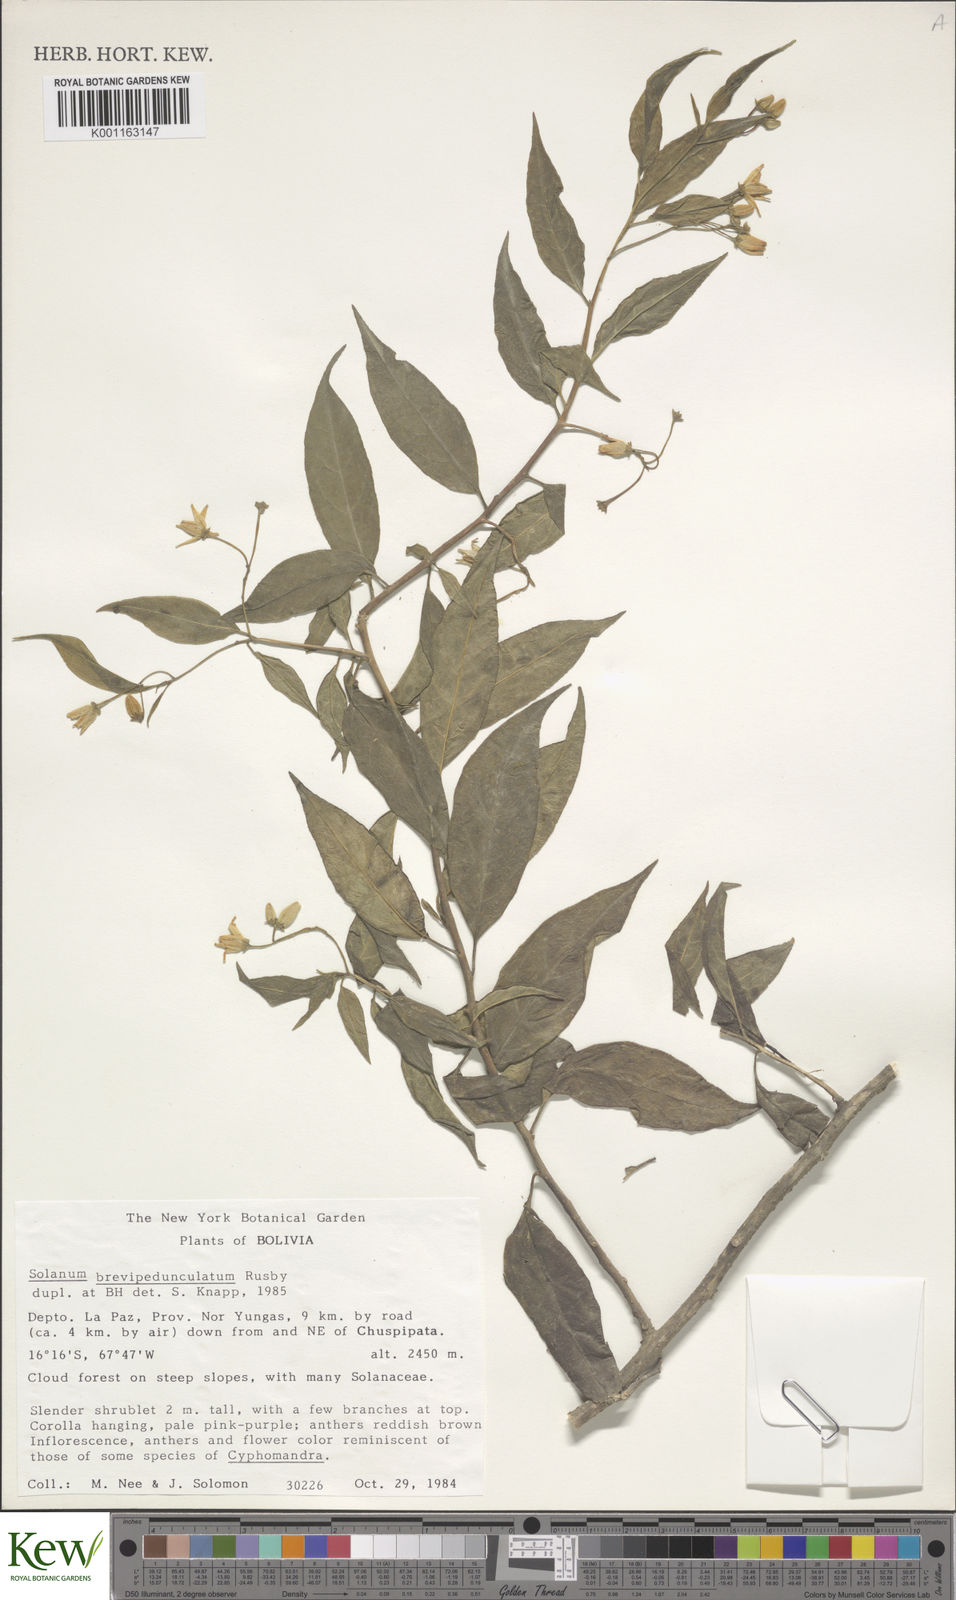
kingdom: Plantae
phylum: Tracheophyta
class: Magnoliopsida
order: Solanales
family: Solanaceae
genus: Solanum
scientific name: Solanum leucocarpon
